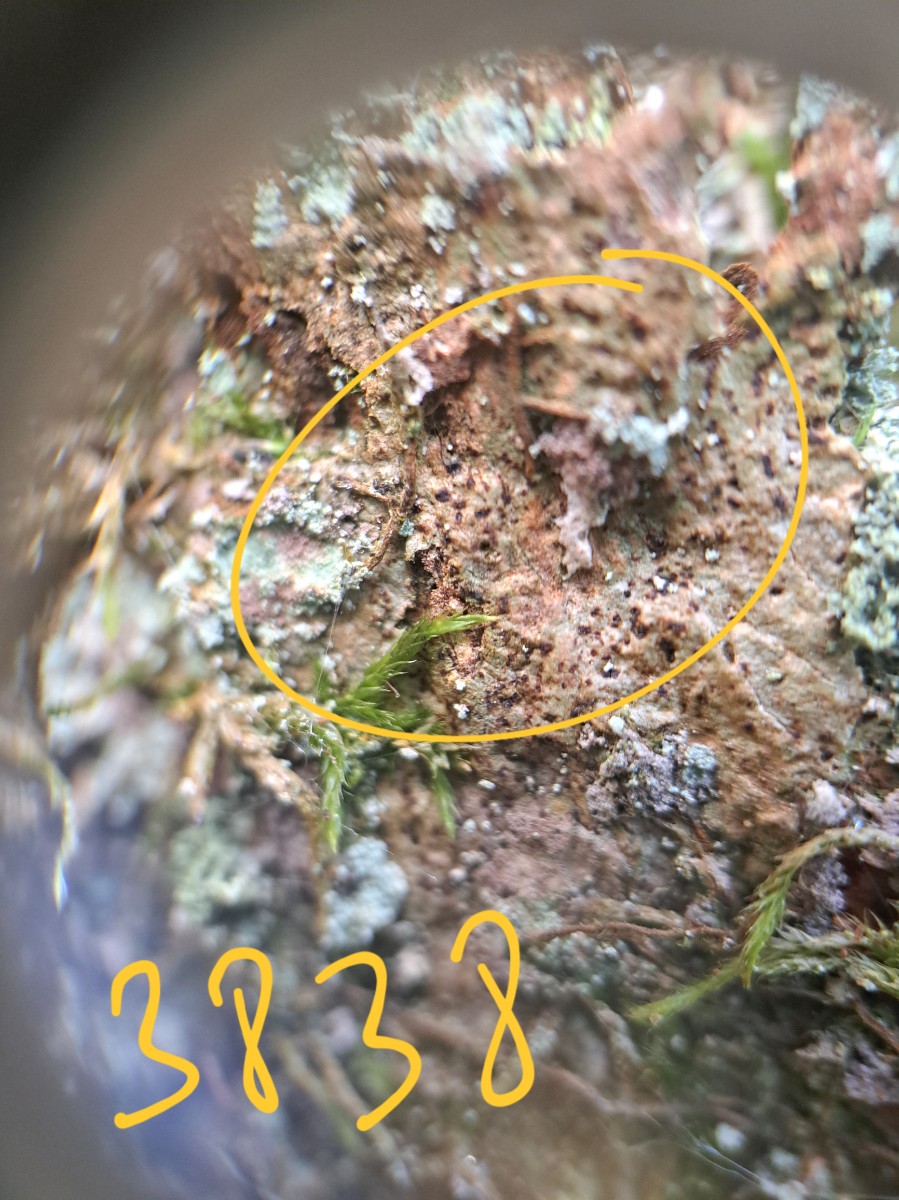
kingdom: Fungi
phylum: Ascomycota
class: Arthoniomycetes
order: Arthoniales
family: Arthoniaceae
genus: Arthonia
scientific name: Arthonia vinosa
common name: rødplettet pletlav
